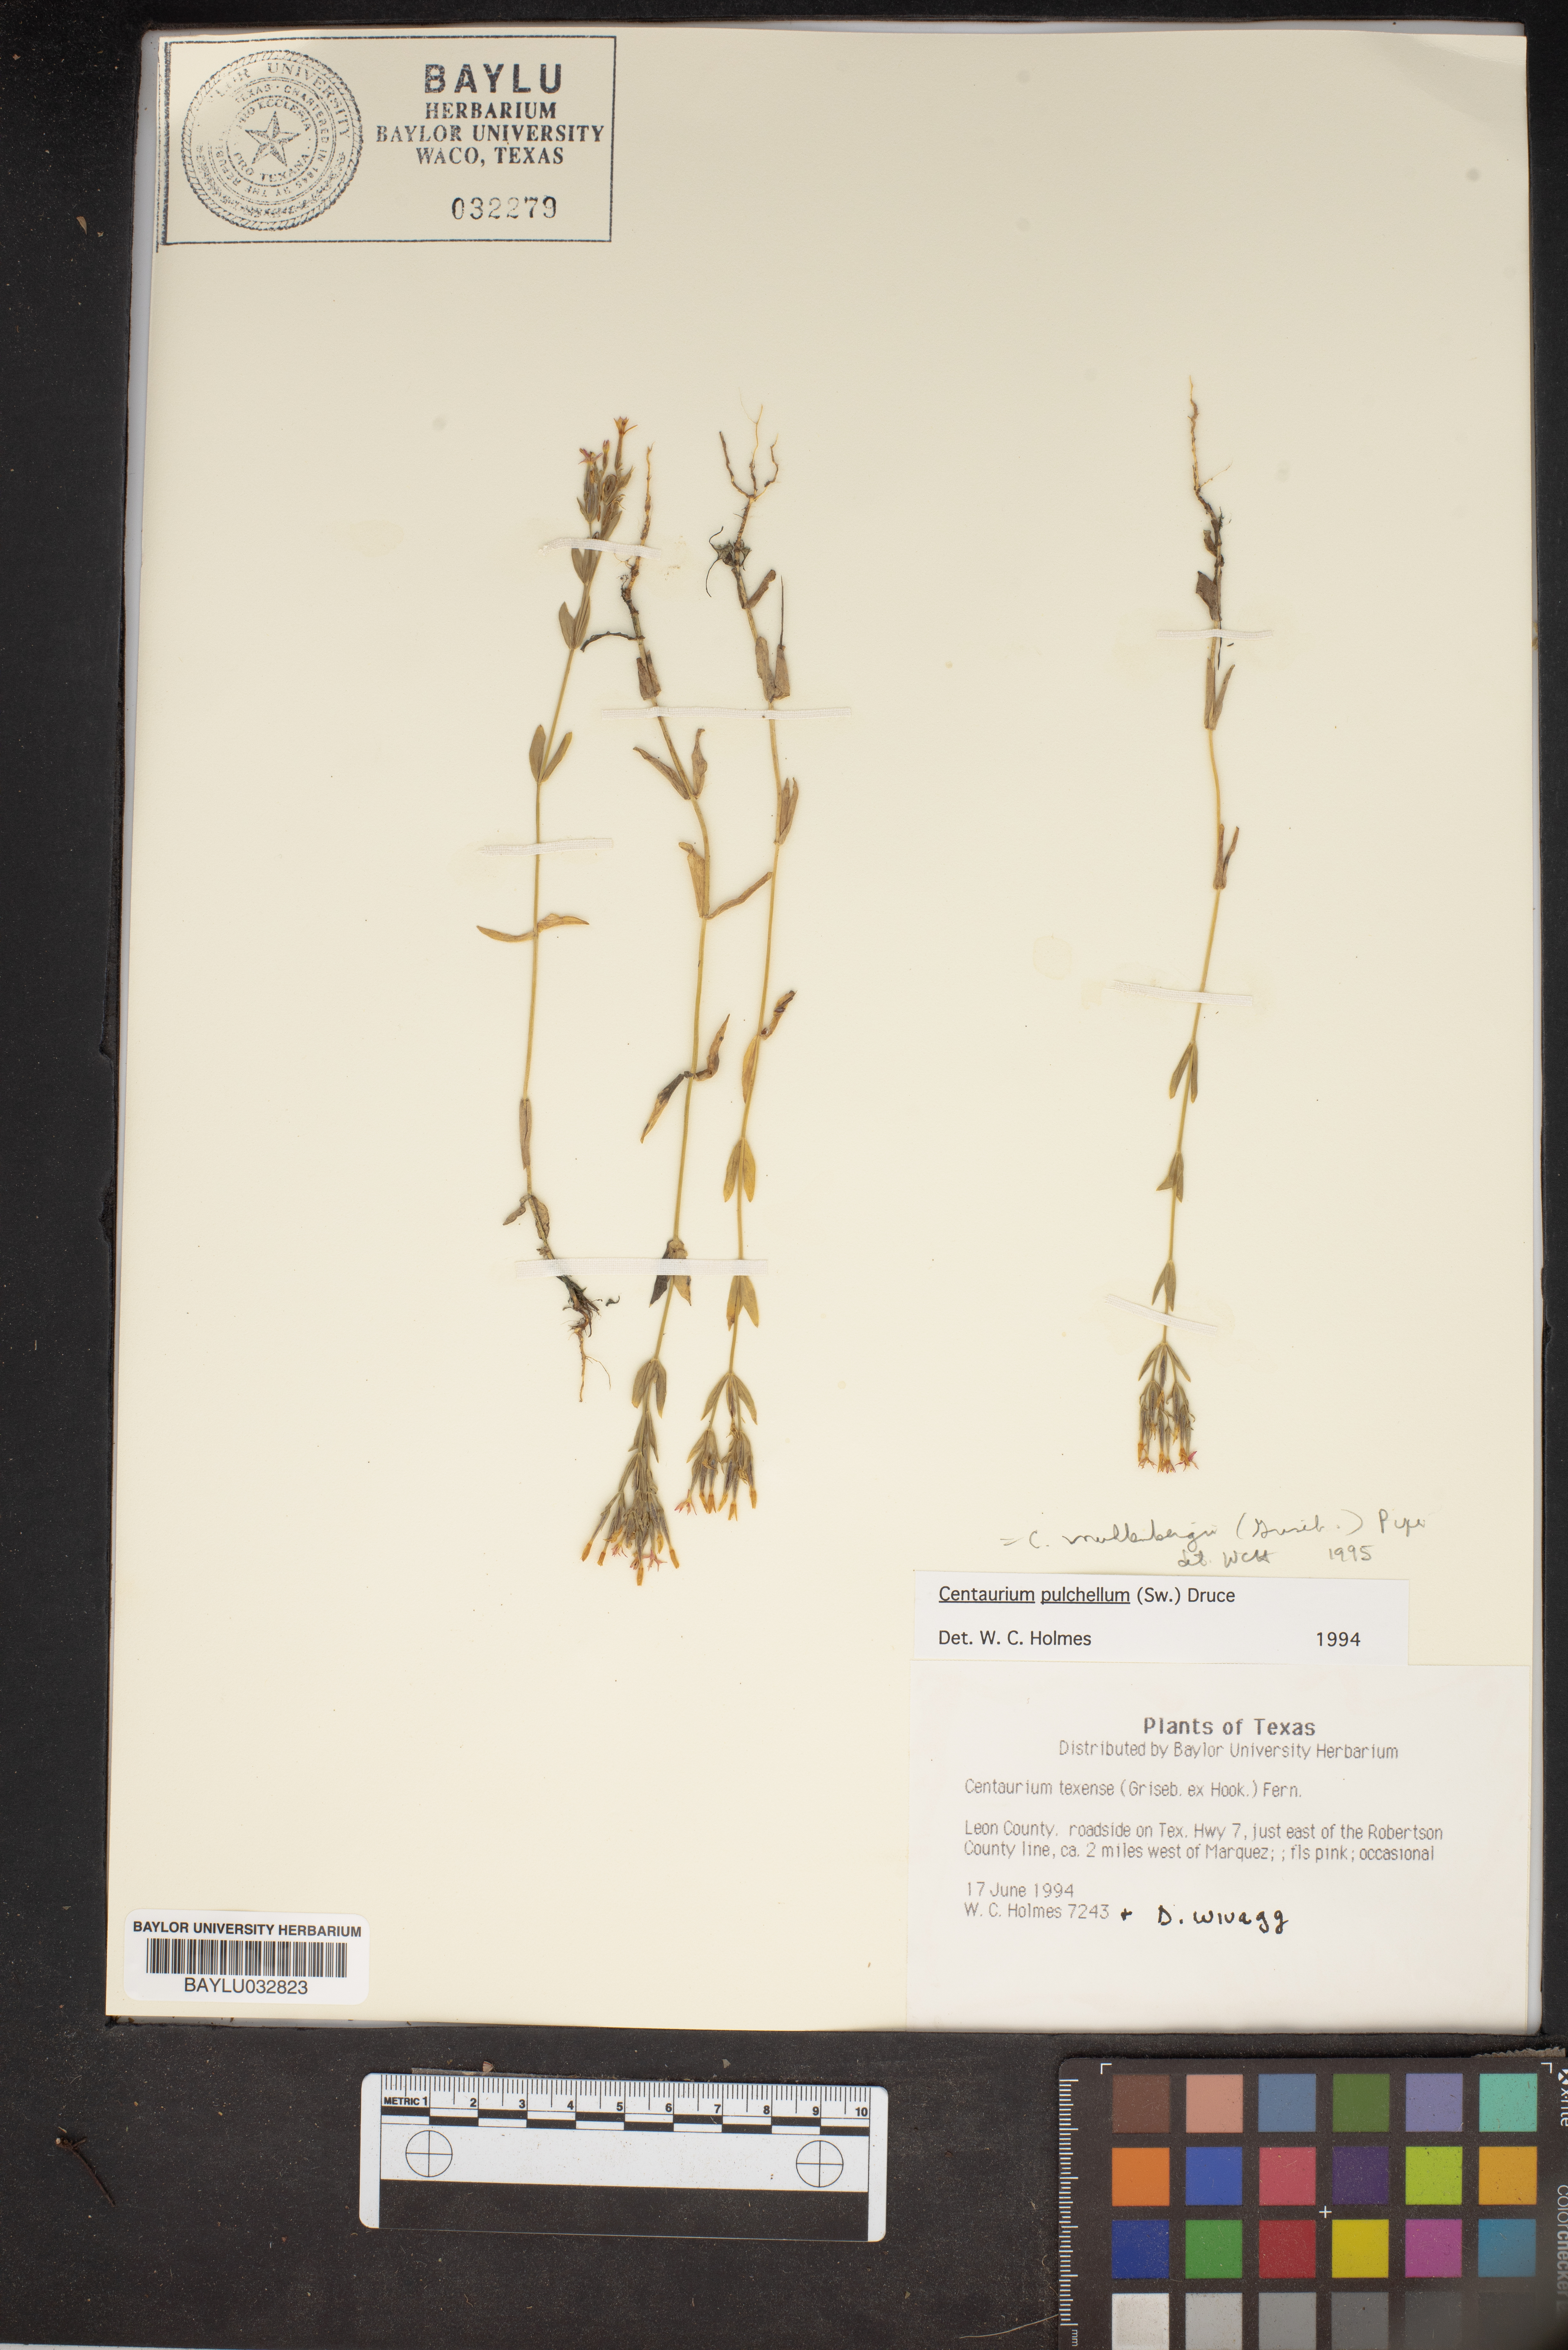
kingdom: Plantae
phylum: Tracheophyta
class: Magnoliopsida
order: Gentianales
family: Gentianaceae
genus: Zeltnera
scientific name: Zeltnera texensis
